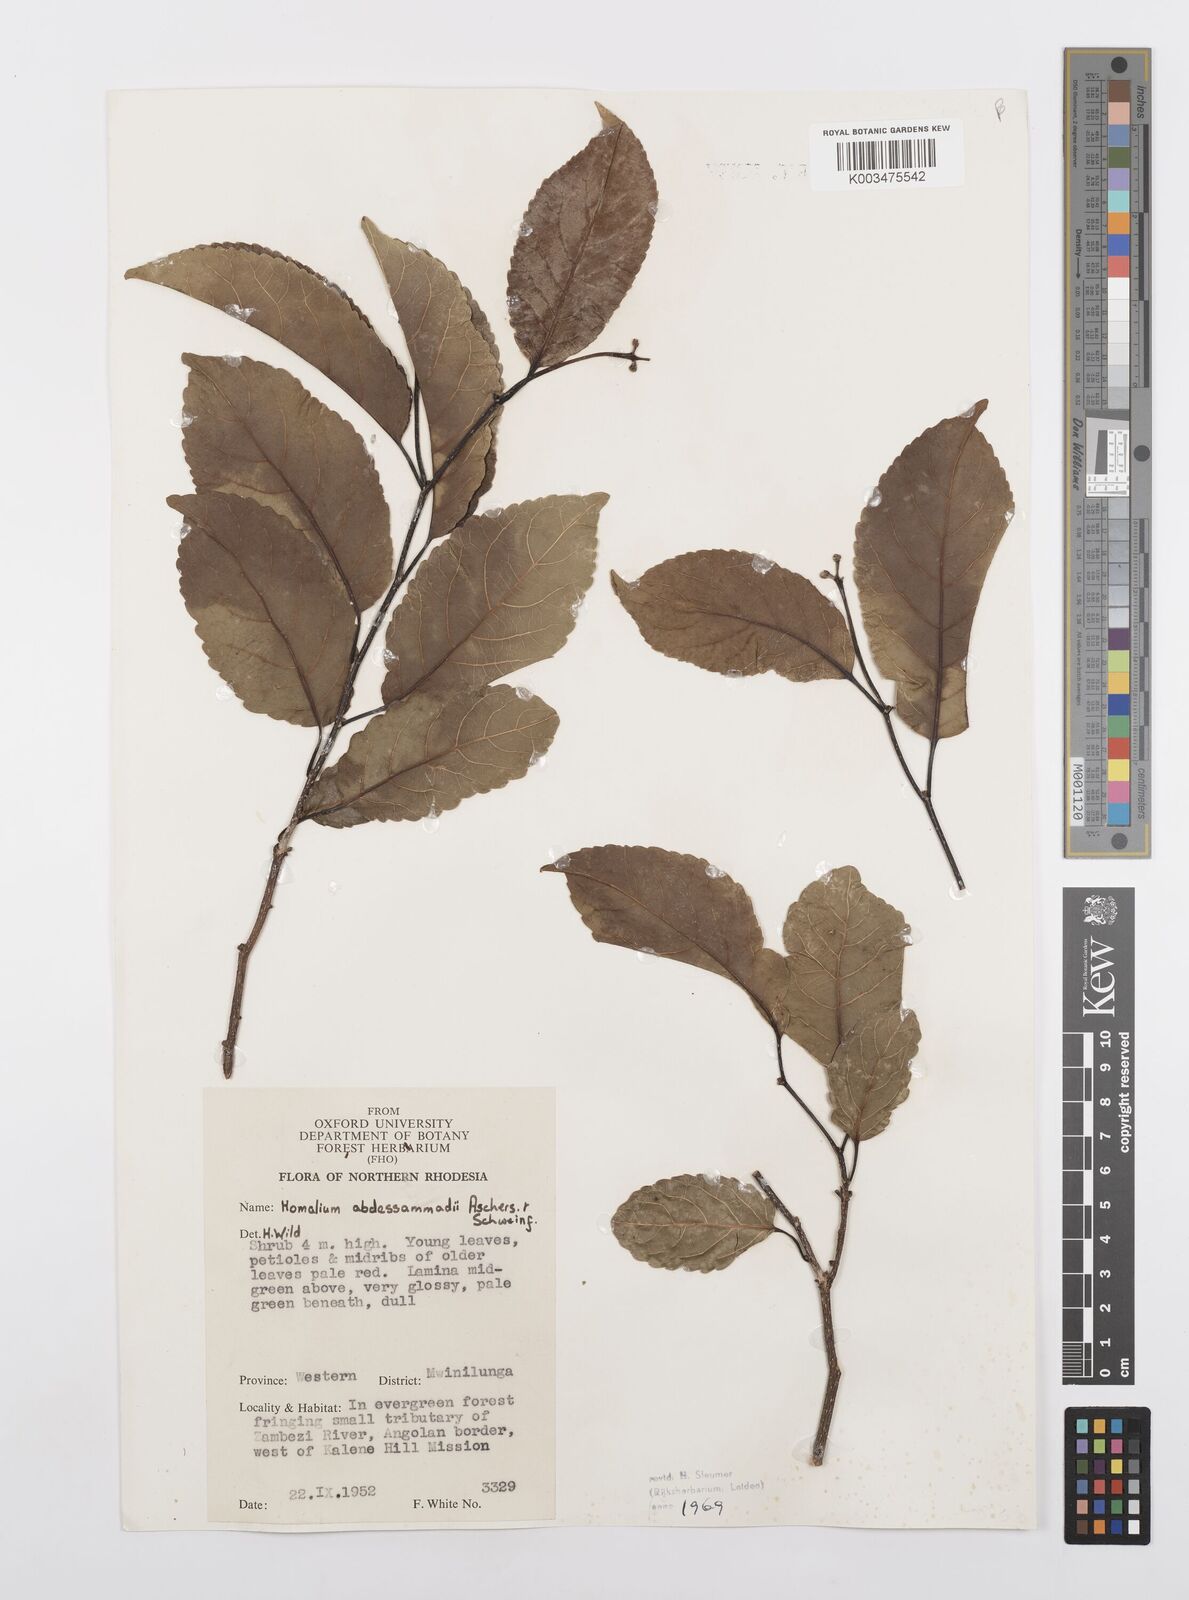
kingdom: Plantae
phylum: Tracheophyta
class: Magnoliopsida
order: Malpighiales
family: Salicaceae
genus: Homalium
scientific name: Homalium abdessammadii
